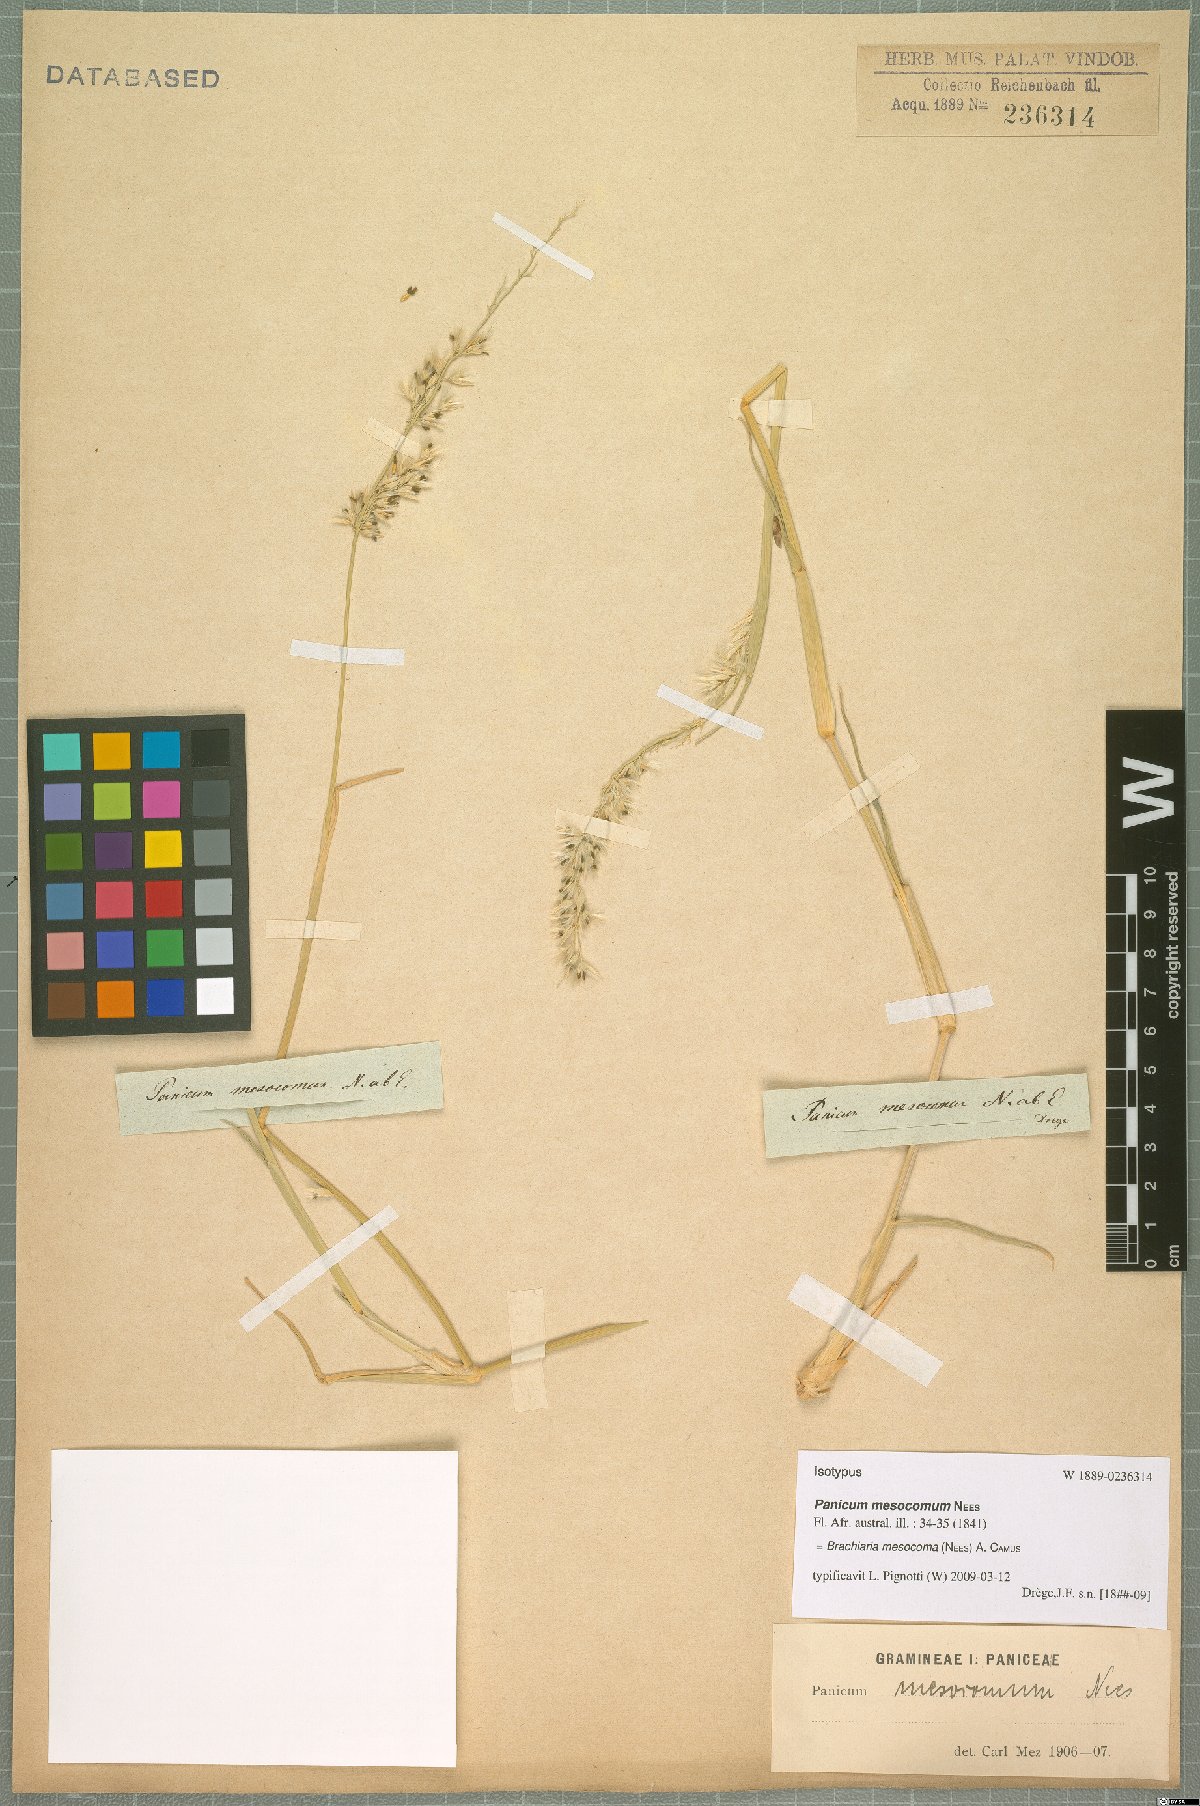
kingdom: Plantae
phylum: Tracheophyta
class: Liliopsida
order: Poales
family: Poaceae
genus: Urochloa
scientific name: Urochloa Brachiaria mesocoma
